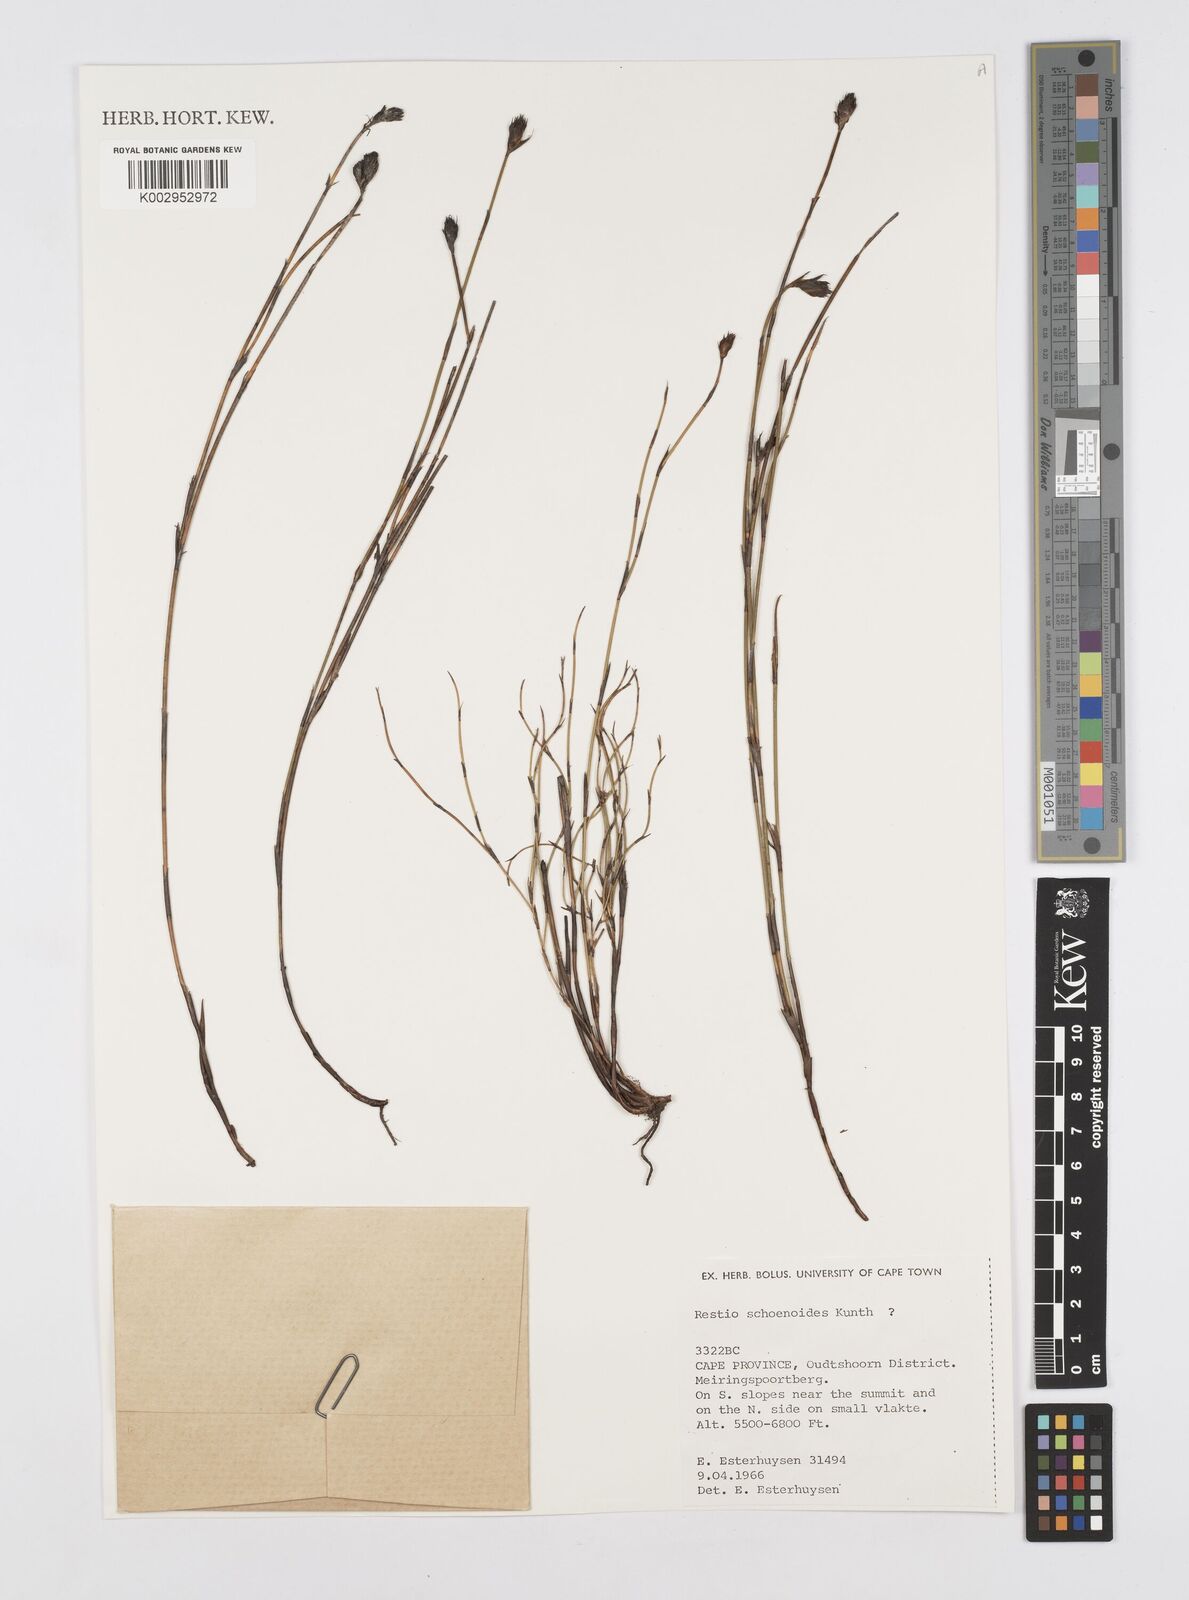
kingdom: Plantae
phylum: Tracheophyta
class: Liliopsida
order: Poales
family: Restionaceae
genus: Restio
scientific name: Restio schoenoides
